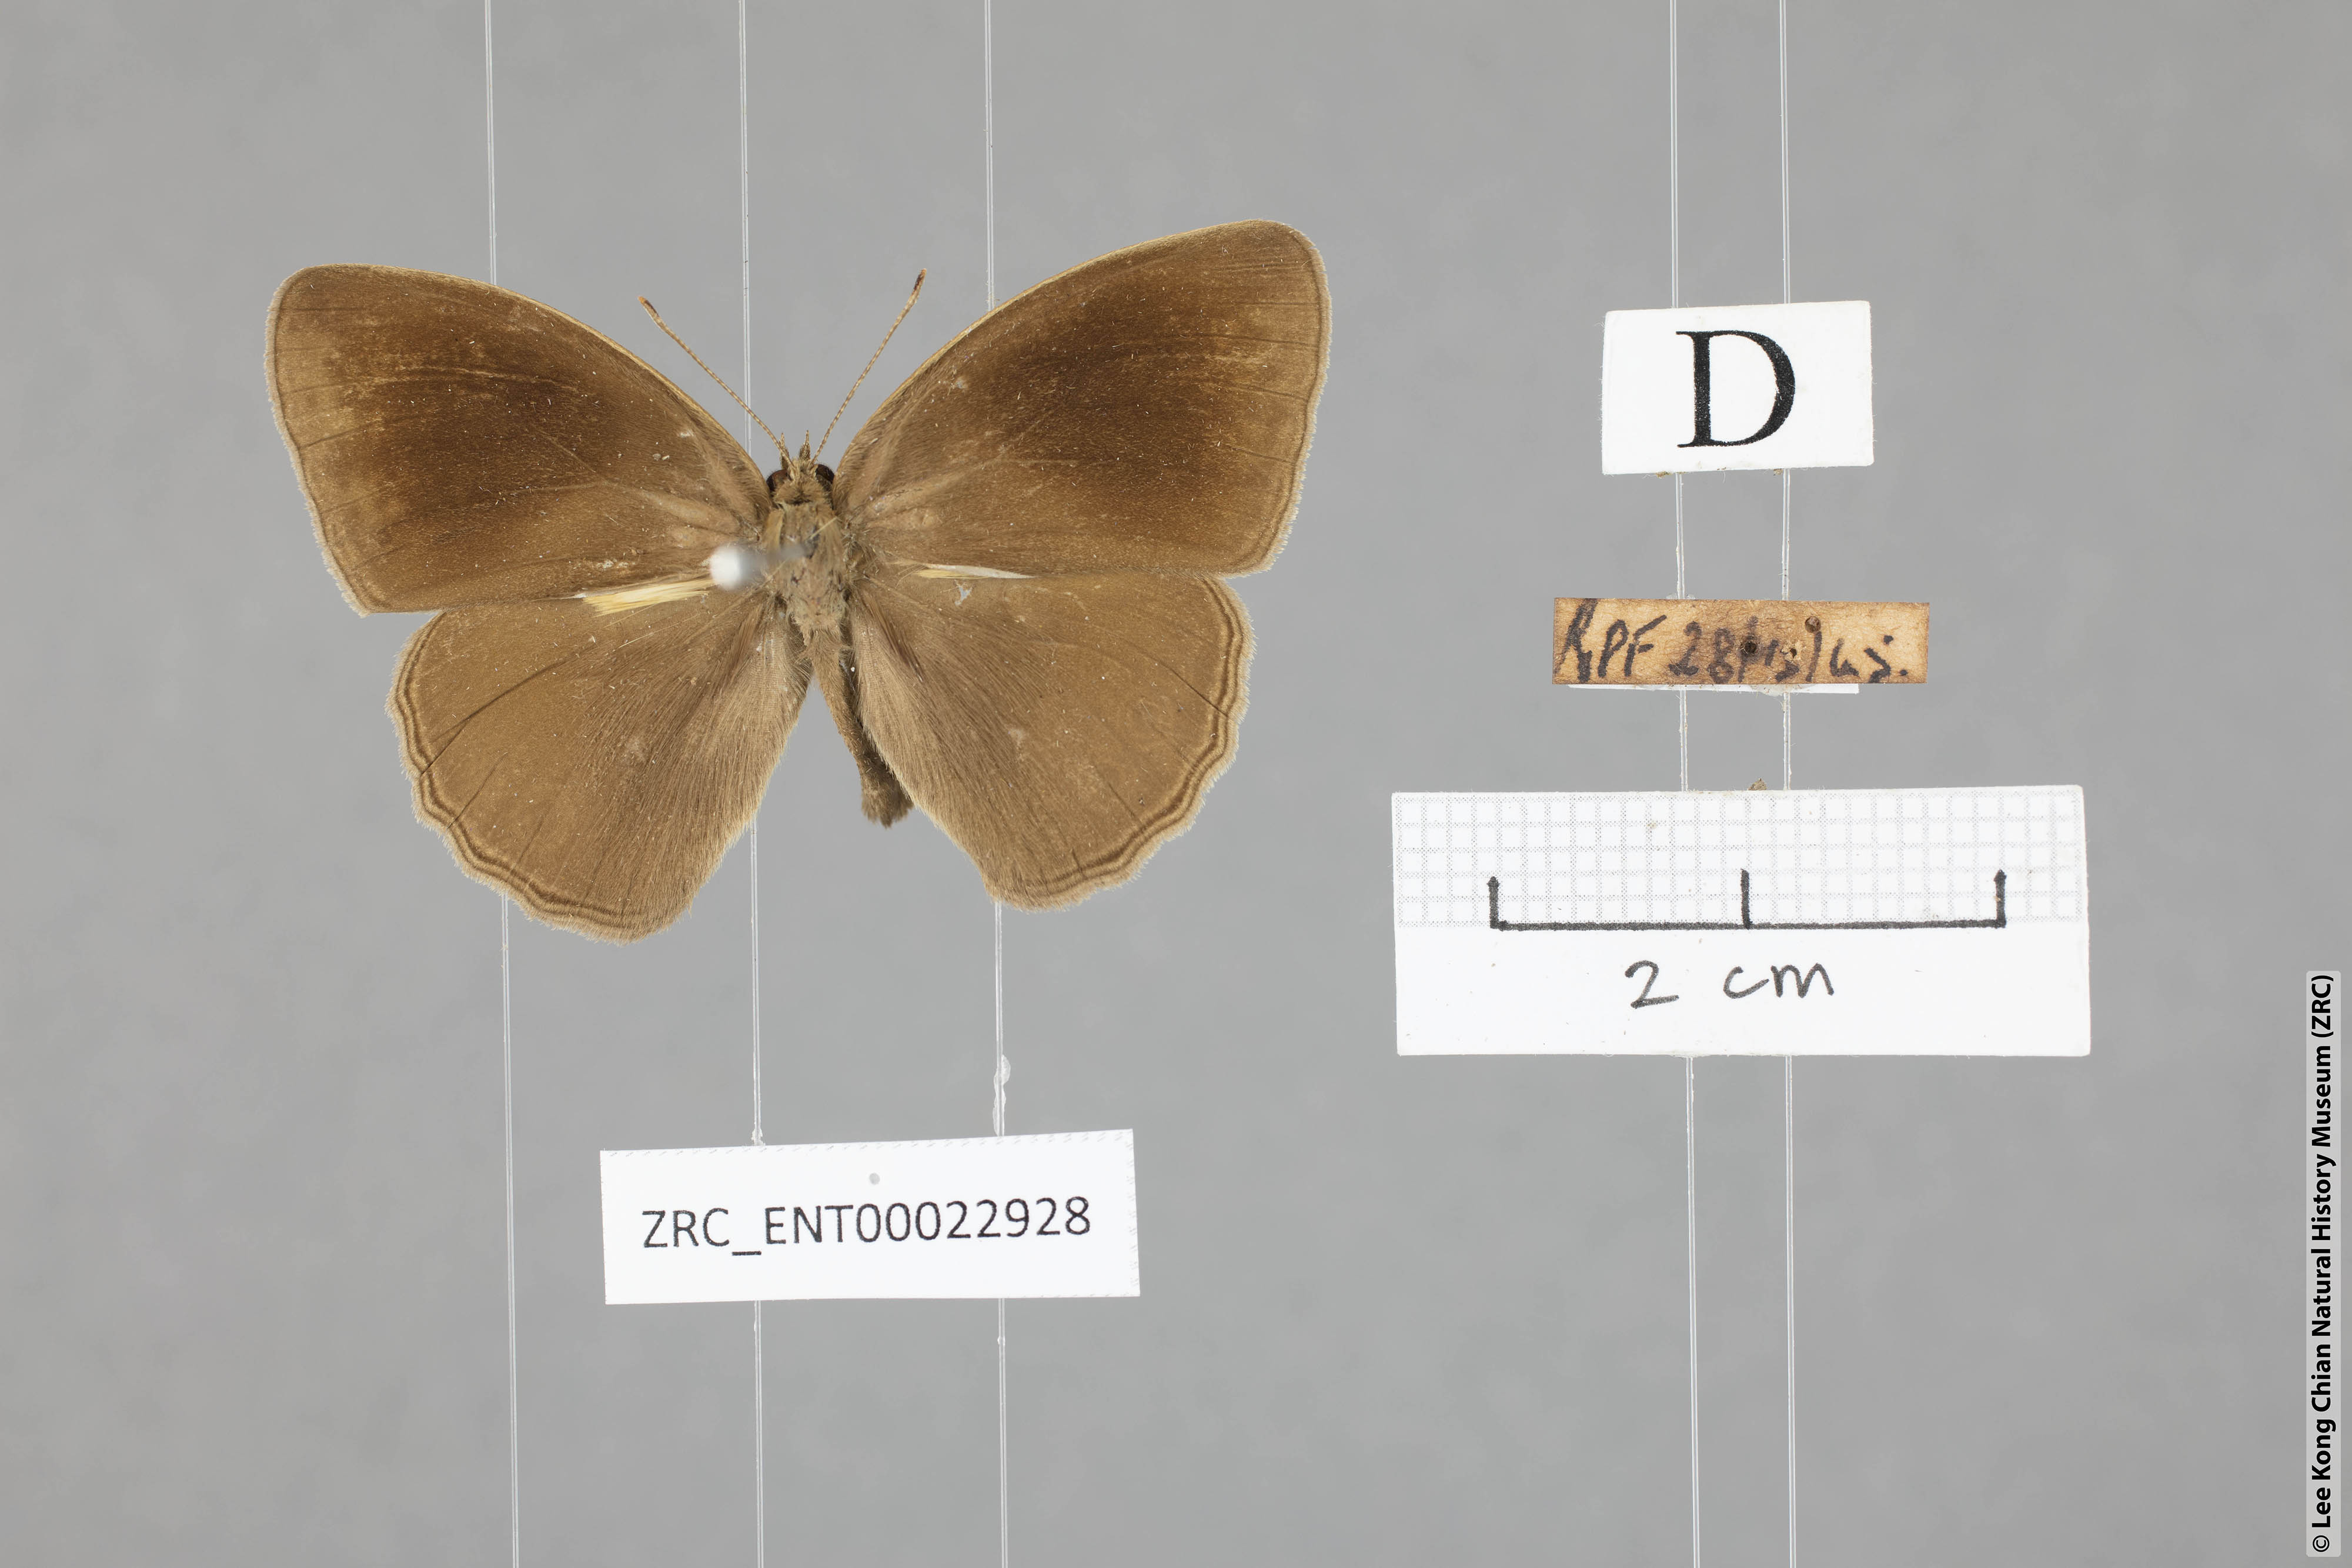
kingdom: Animalia
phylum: Arthropoda
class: Insecta
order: Lepidoptera
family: Nymphalidae
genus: Mycalesis
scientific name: Mycalesis janardana
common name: Common bush brown
